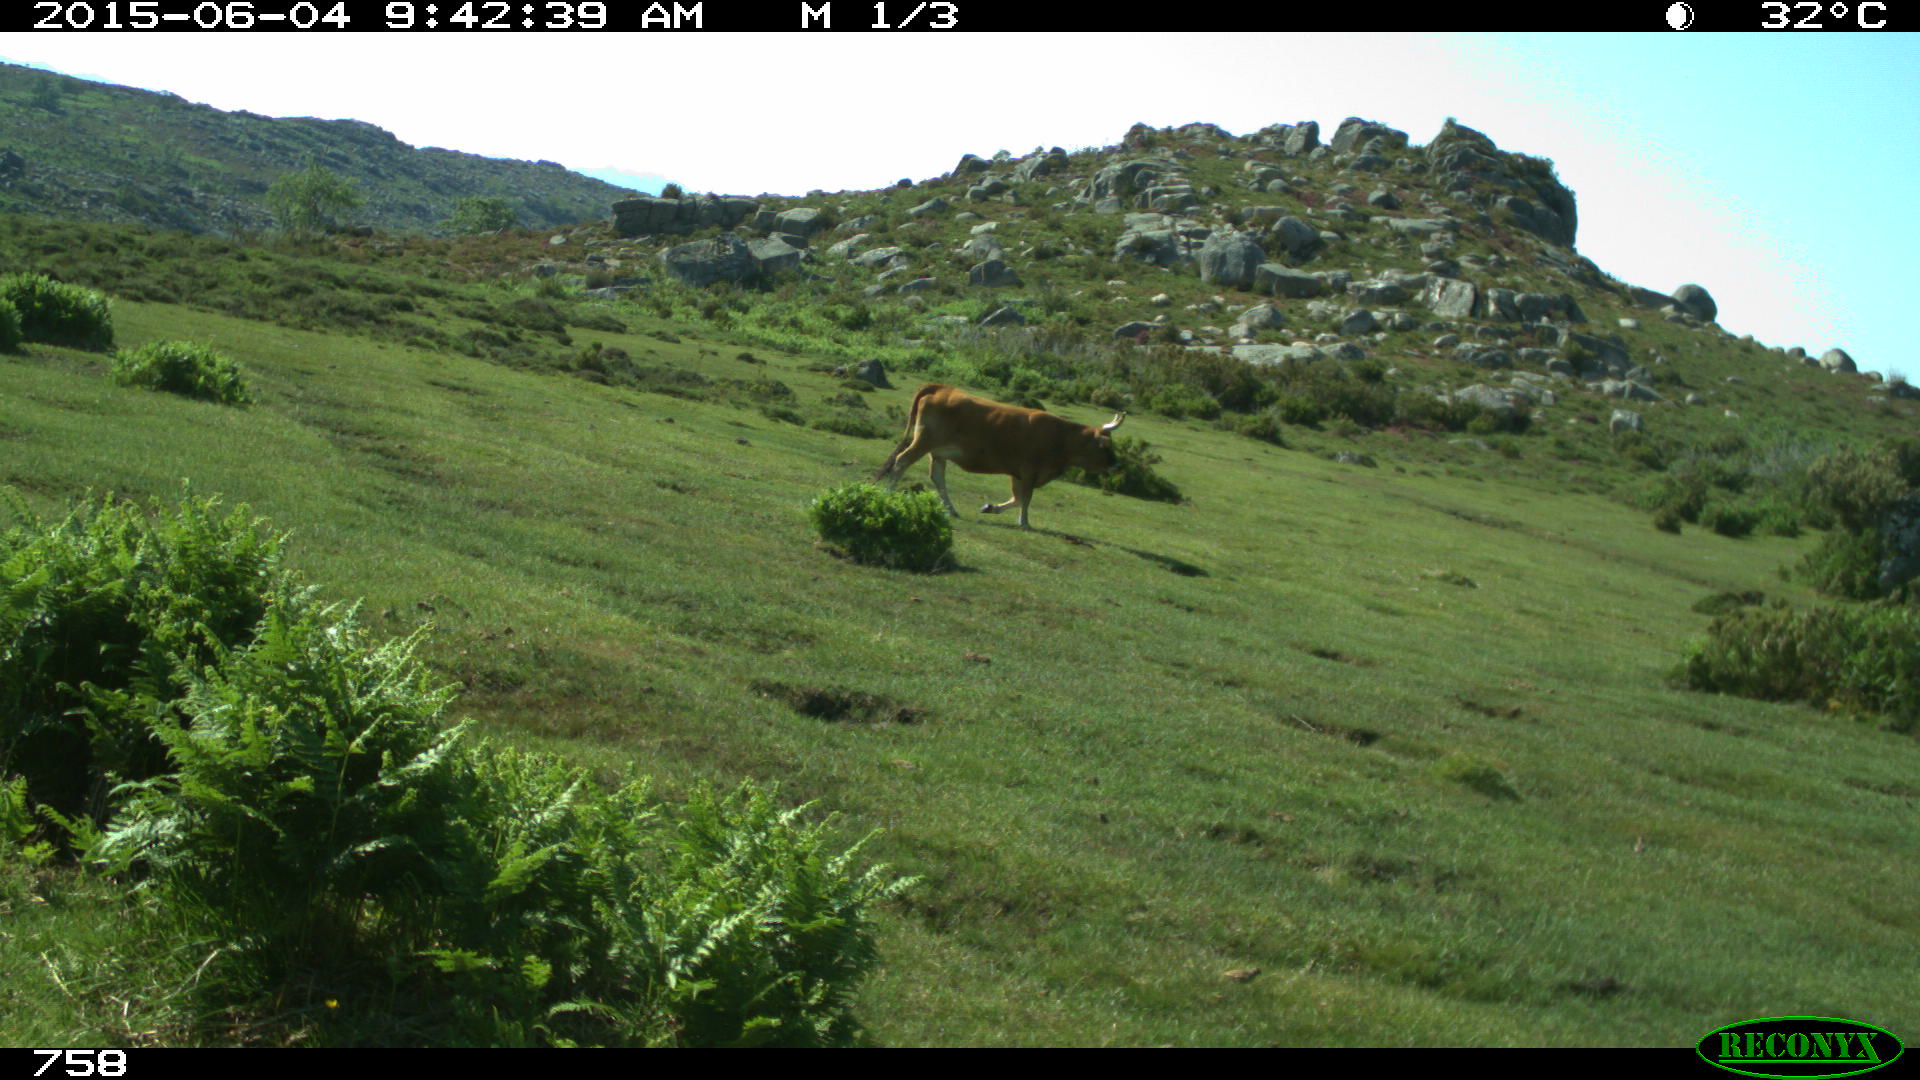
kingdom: Animalia
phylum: Chordata
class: Mammalia
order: Artiodactyla
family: Bovidae
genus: Bos
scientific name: Bos taurus
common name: Domesticated cattle
